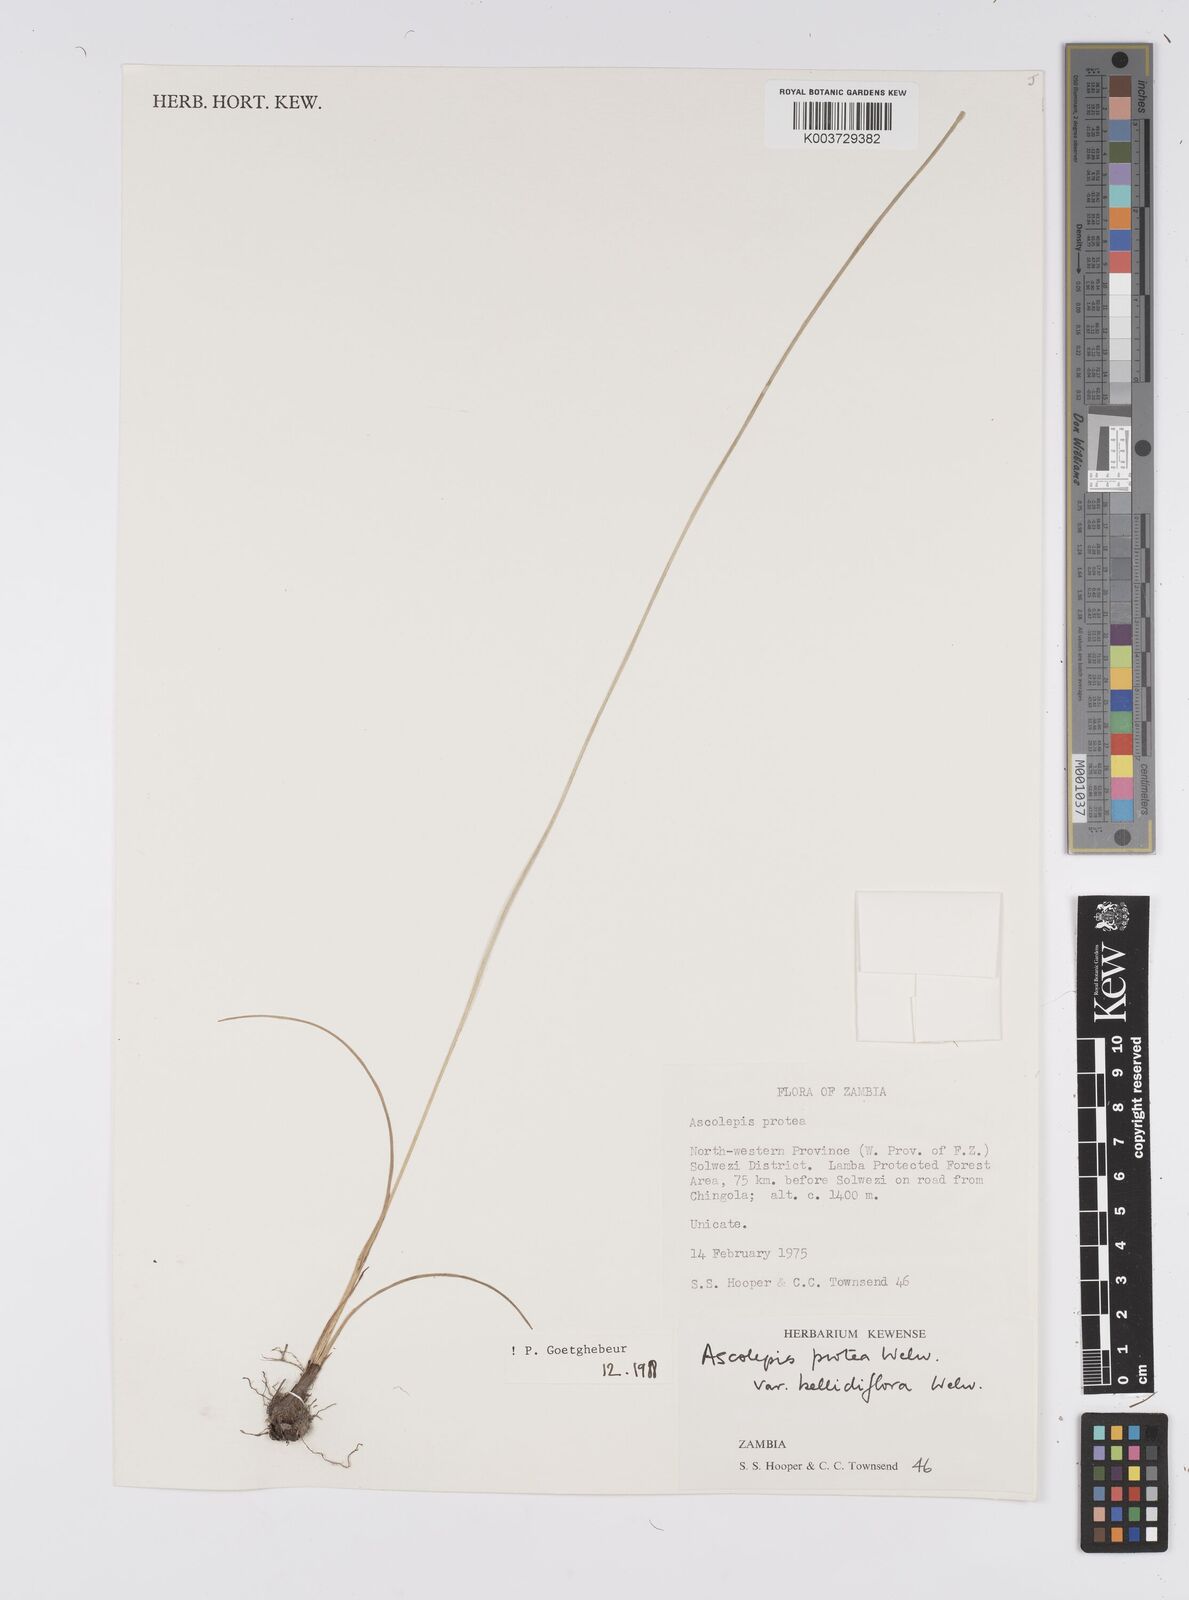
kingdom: Plantae
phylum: Tracheophyta
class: Liliopsida
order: Poales
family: Cyperaceae
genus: Cyperus
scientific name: Cyperus proteus
